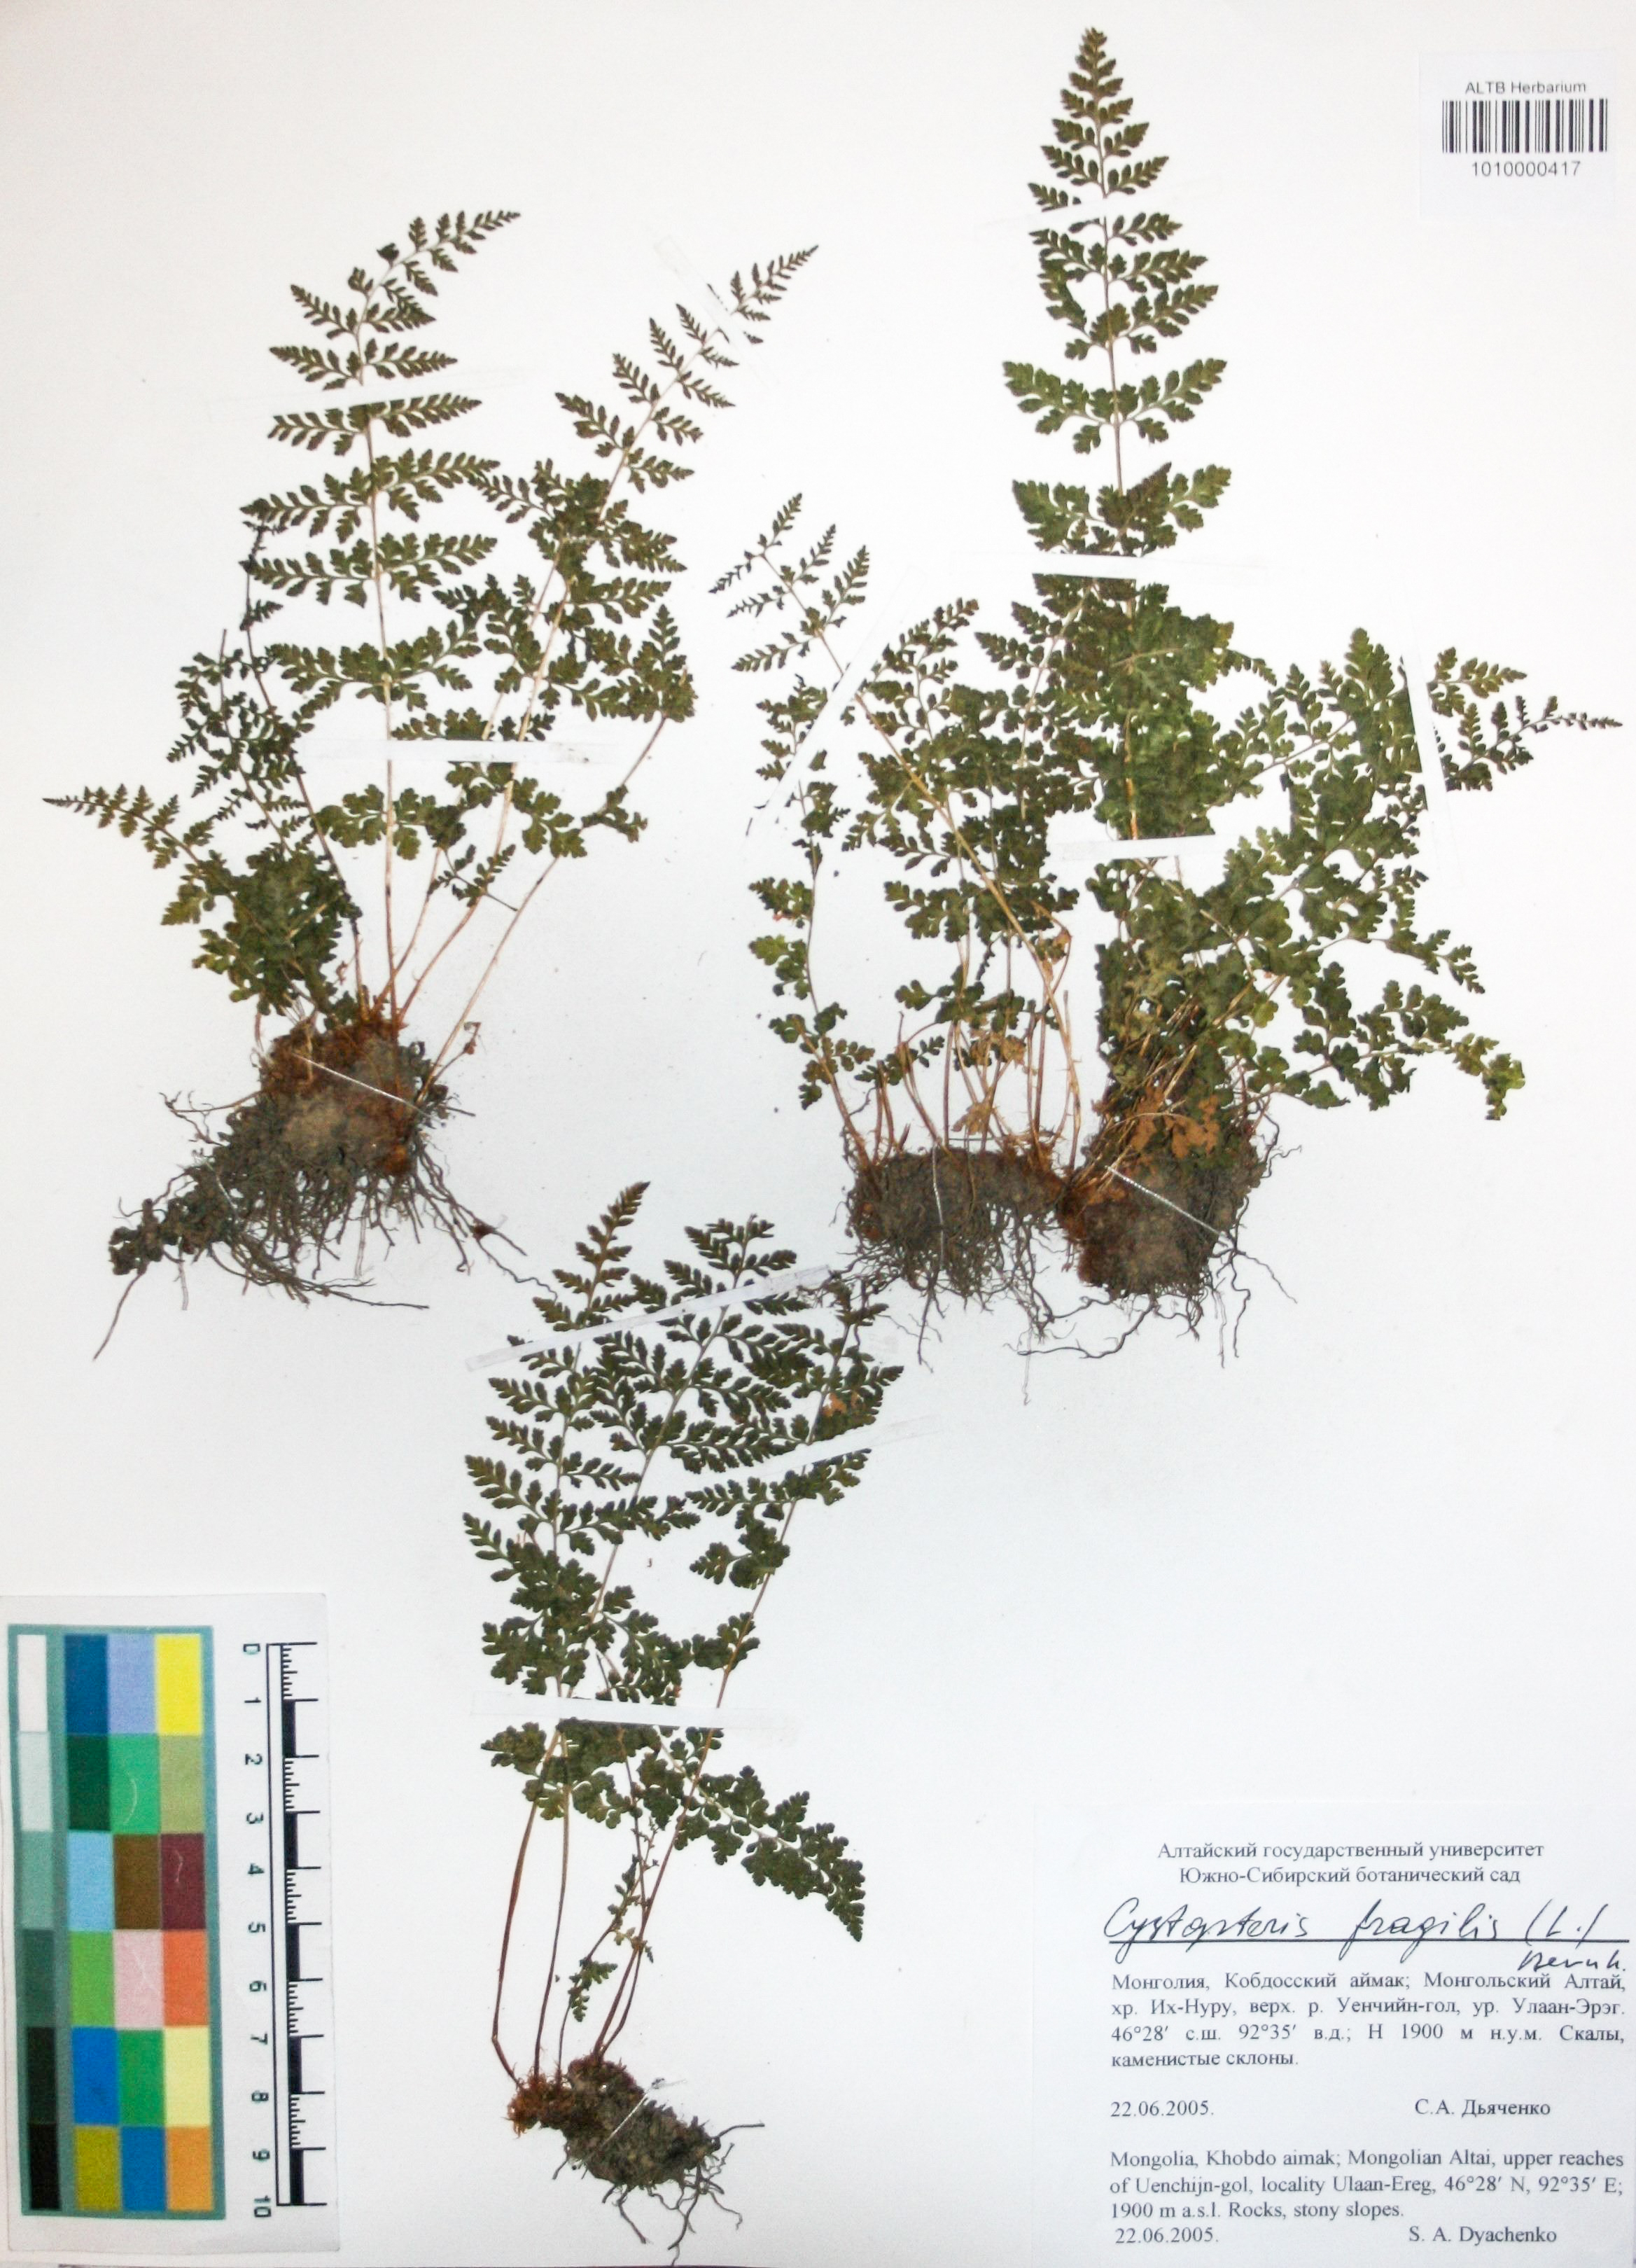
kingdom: Plantae
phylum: Tracheophyta
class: Polypodiopsida
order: Polypodiales
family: Cystopteridaceae
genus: Cystopteris
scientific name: Cystopteris fragilis
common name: Brittle bladder fern
